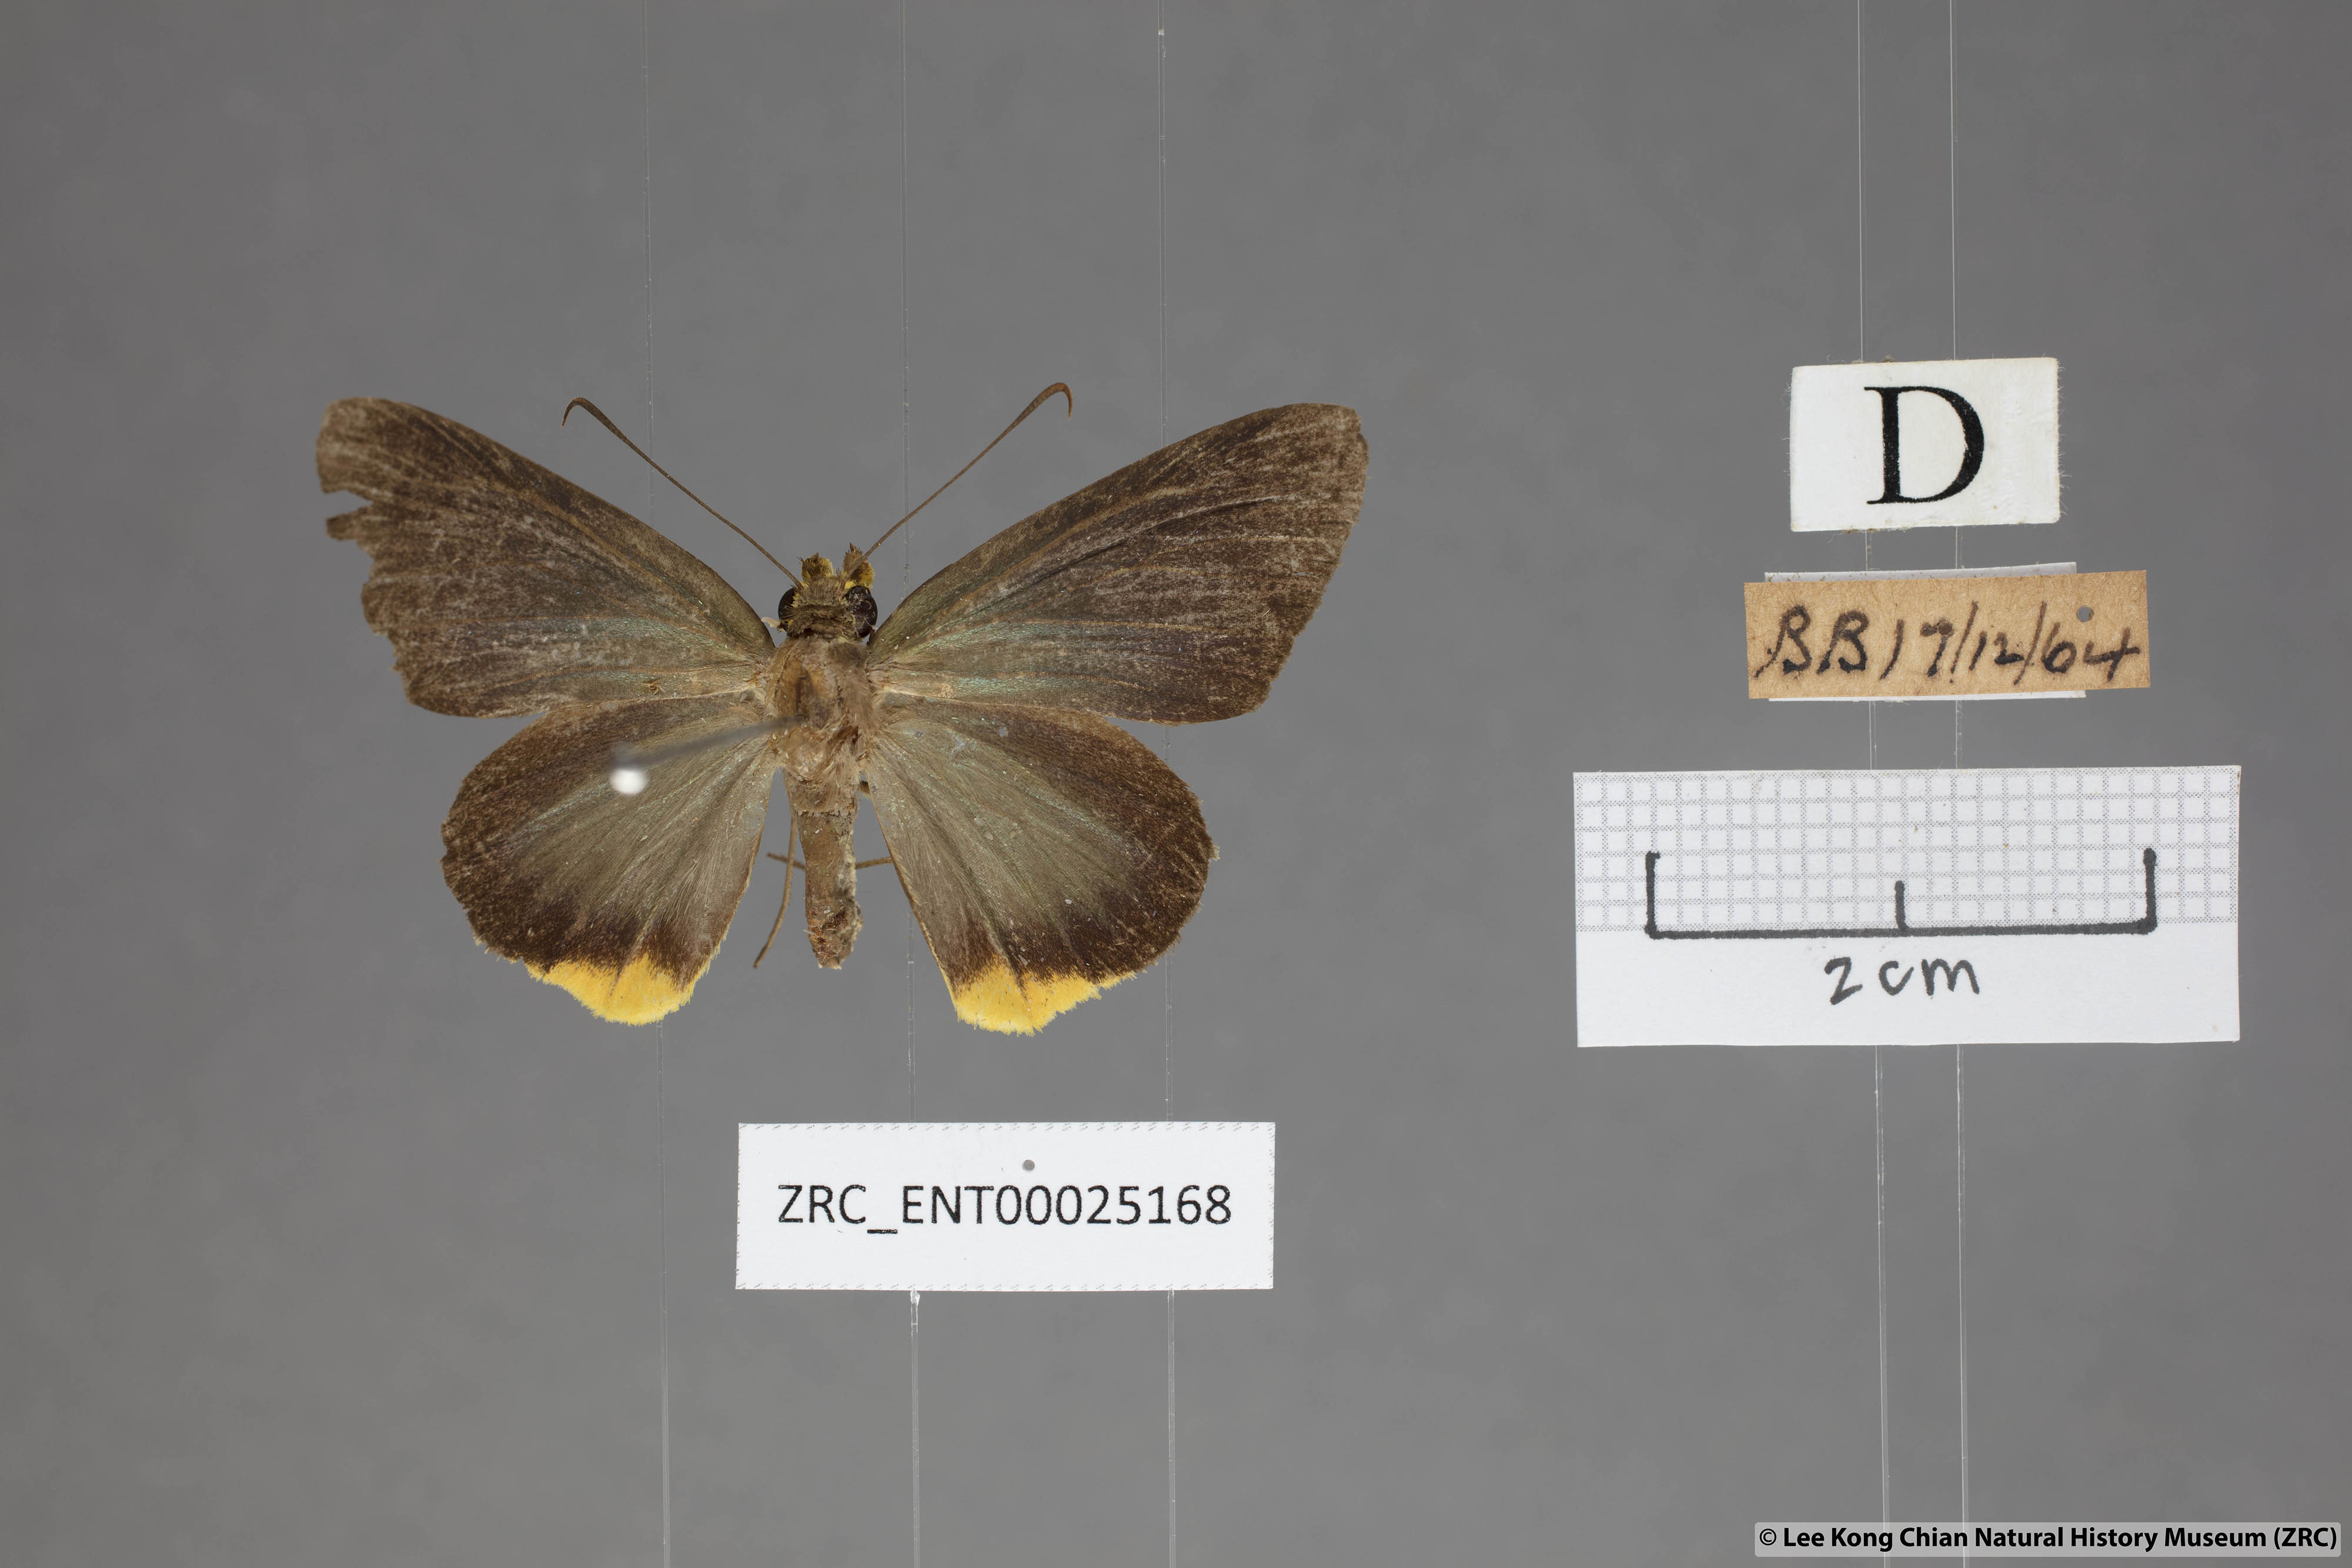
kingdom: Animalia
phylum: Arthropoda
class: Insecta
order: Lepidoptera
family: Hesperiidae
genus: Pirdana
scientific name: Pirdana hyela
